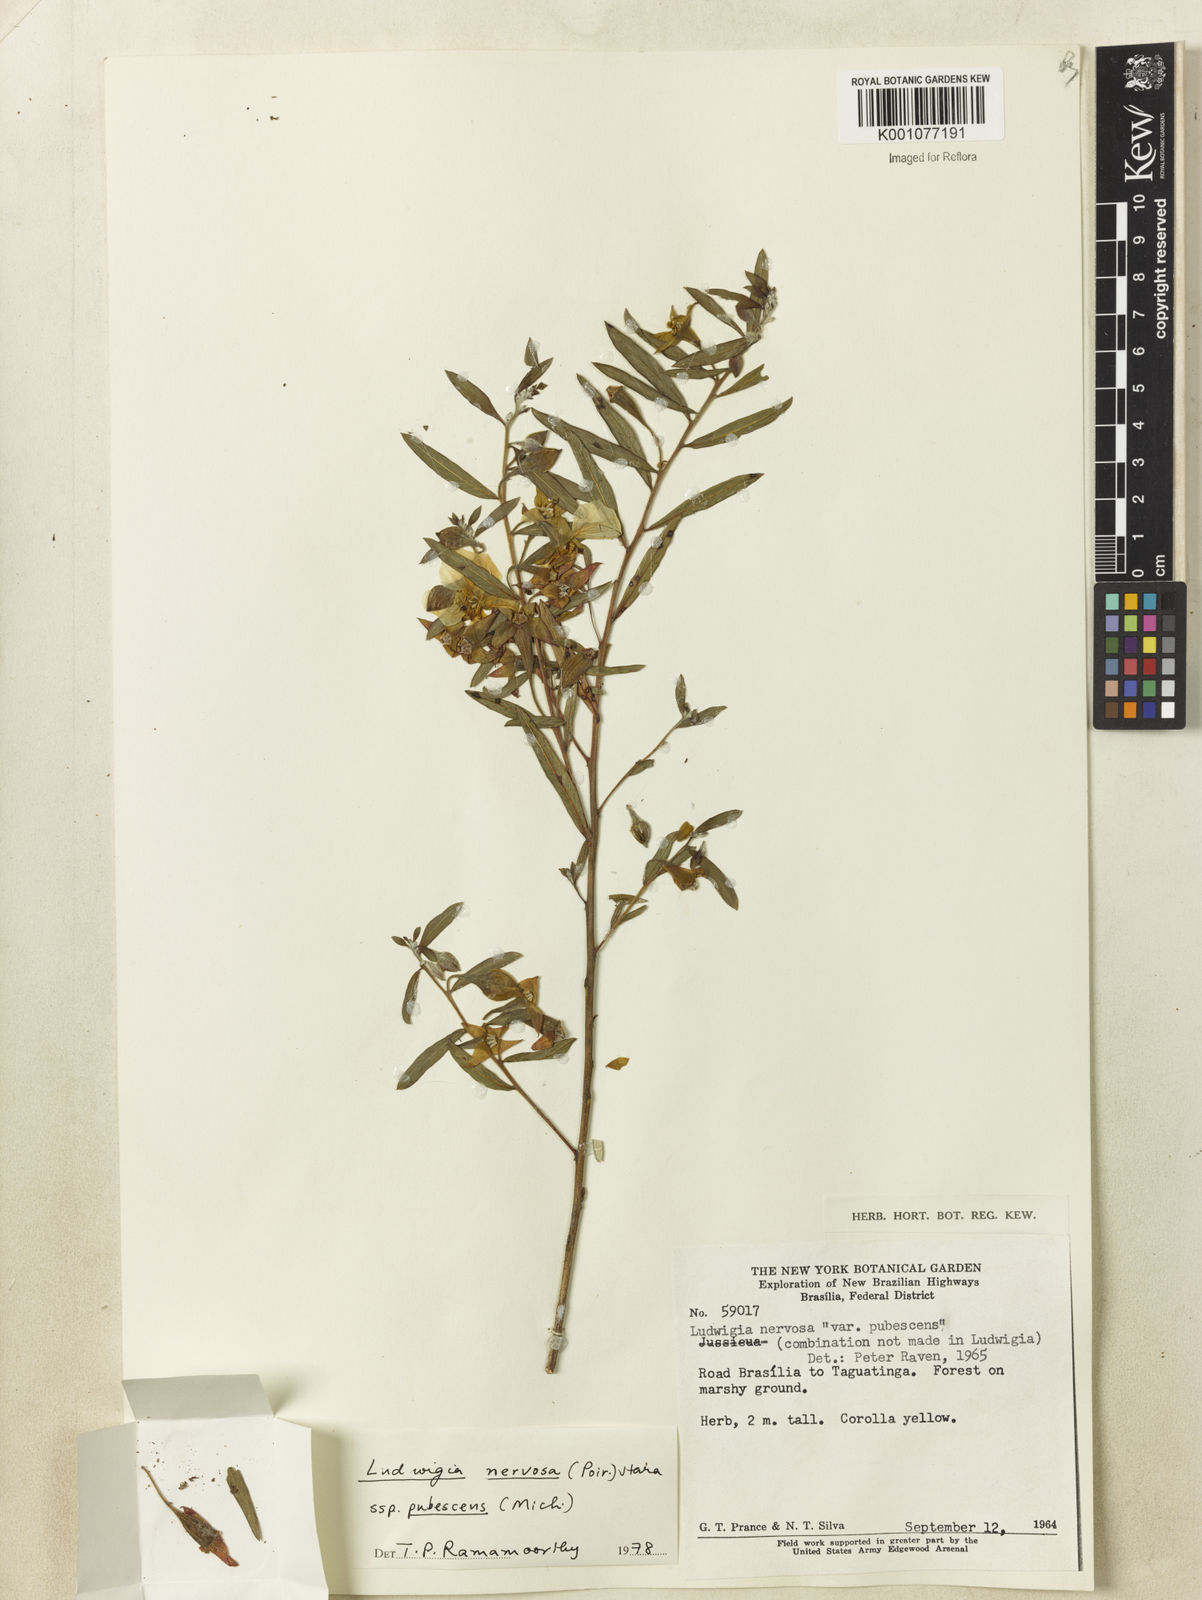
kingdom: Plantae
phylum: Tracheophyta
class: Magnoliopsida
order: Myrtales
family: Onagraceae
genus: Ludwigia
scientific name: Ludwigia nervosa
